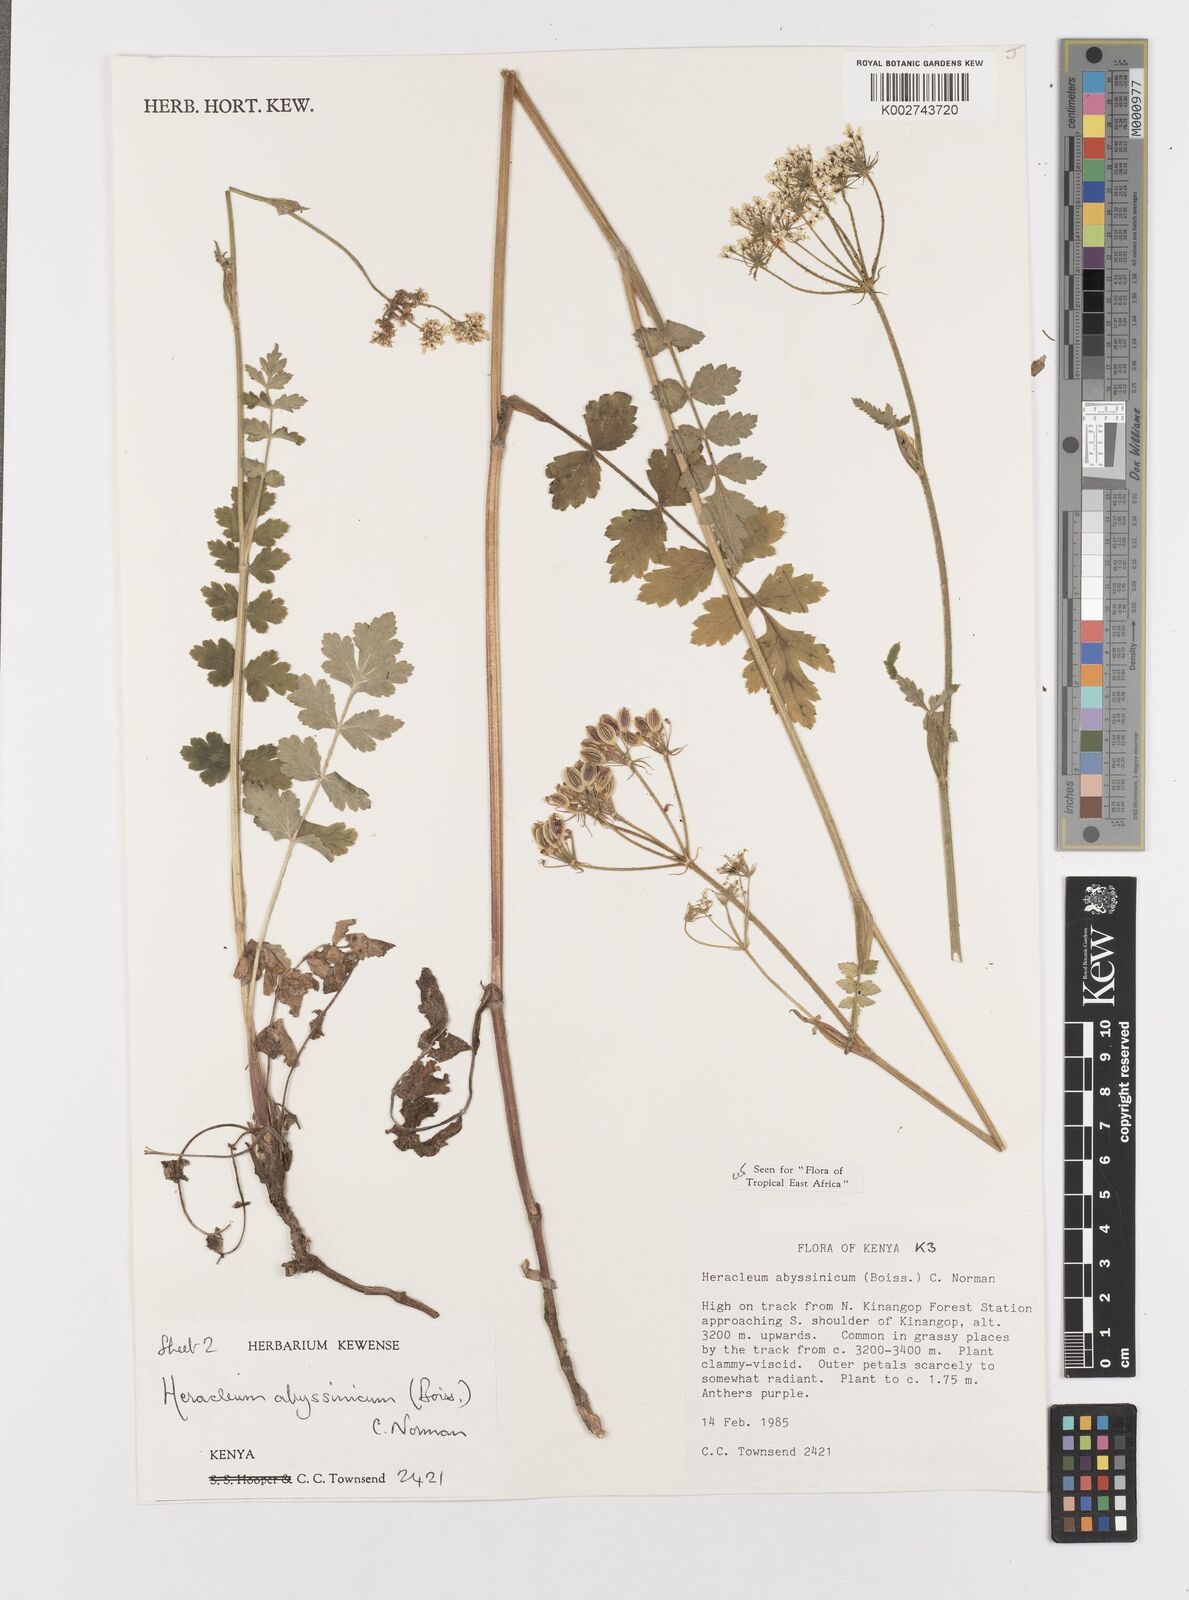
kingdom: Plantae
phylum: Tracheophyta
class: Magnoliopsida
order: Apiales
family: Apiaceae
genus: Heracleum
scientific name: Heracleum abyssinicum
